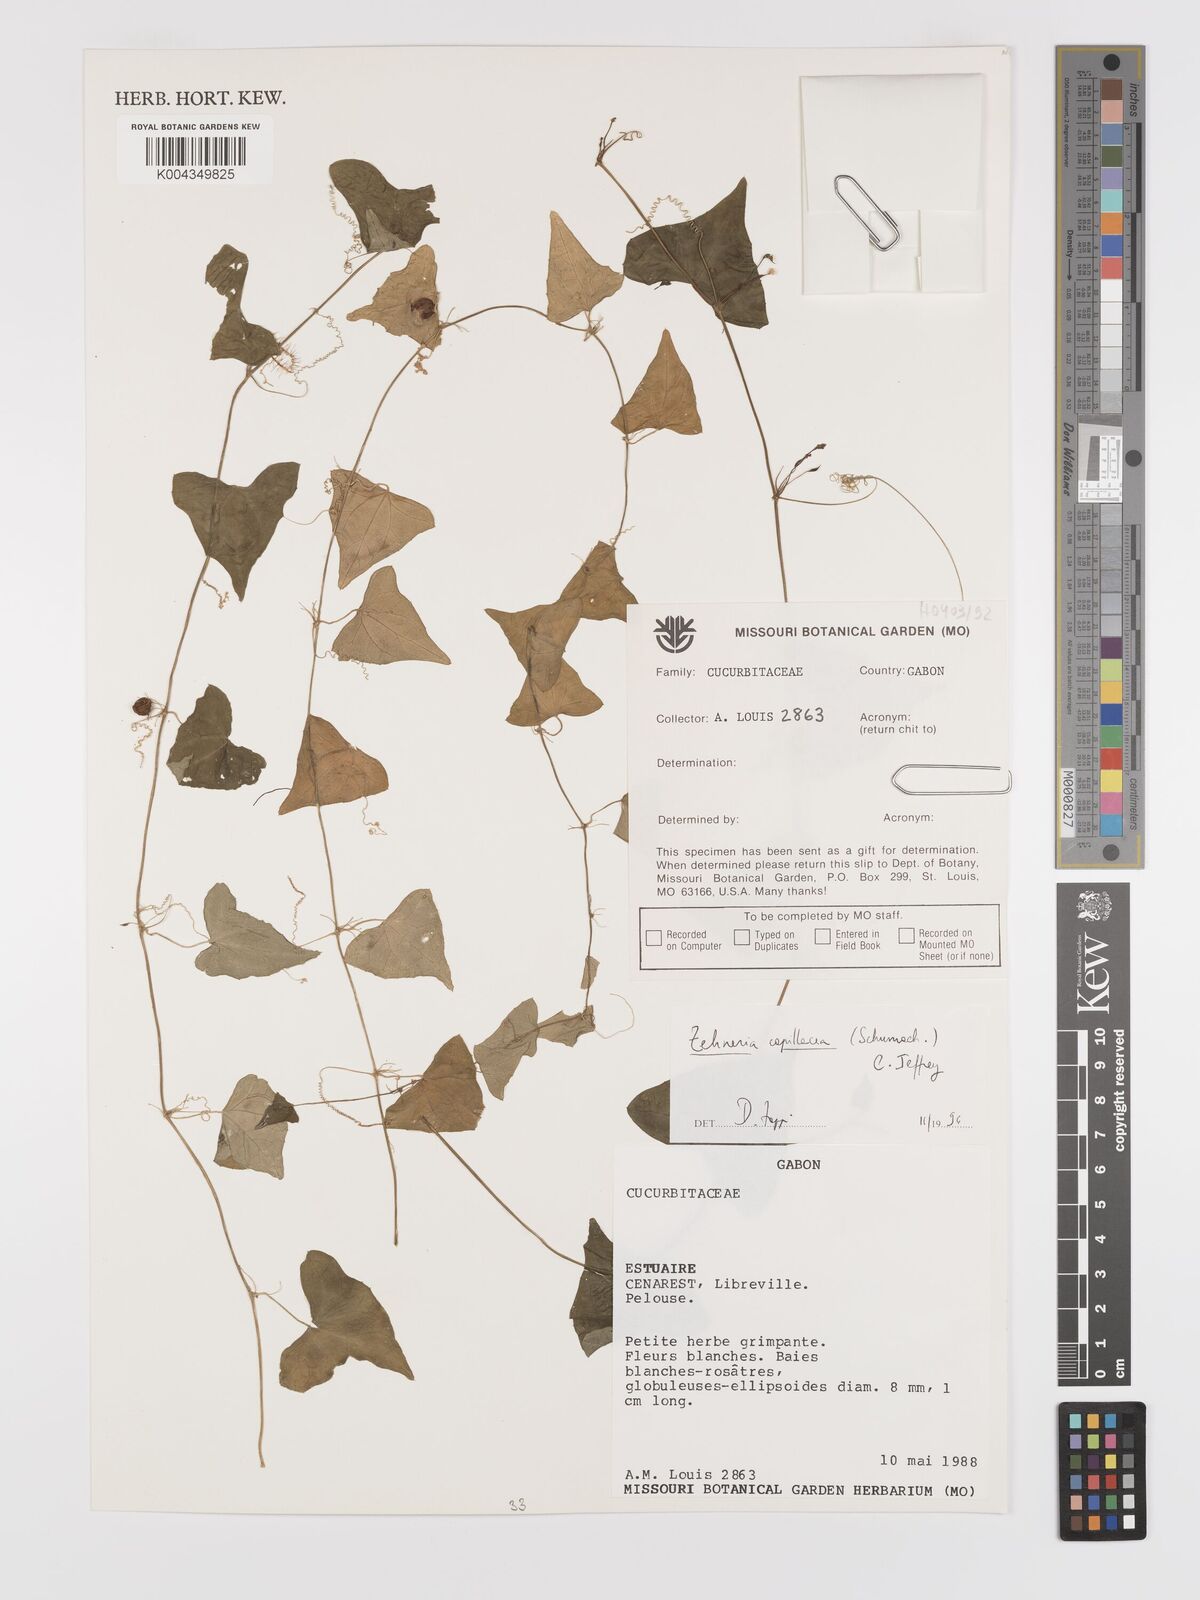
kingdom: Plantae
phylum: Tracheophyta
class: Magnoliopsida
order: Cucurbitales
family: Cucurbitaceae
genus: Zehneria
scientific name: Zehneria capillacea
